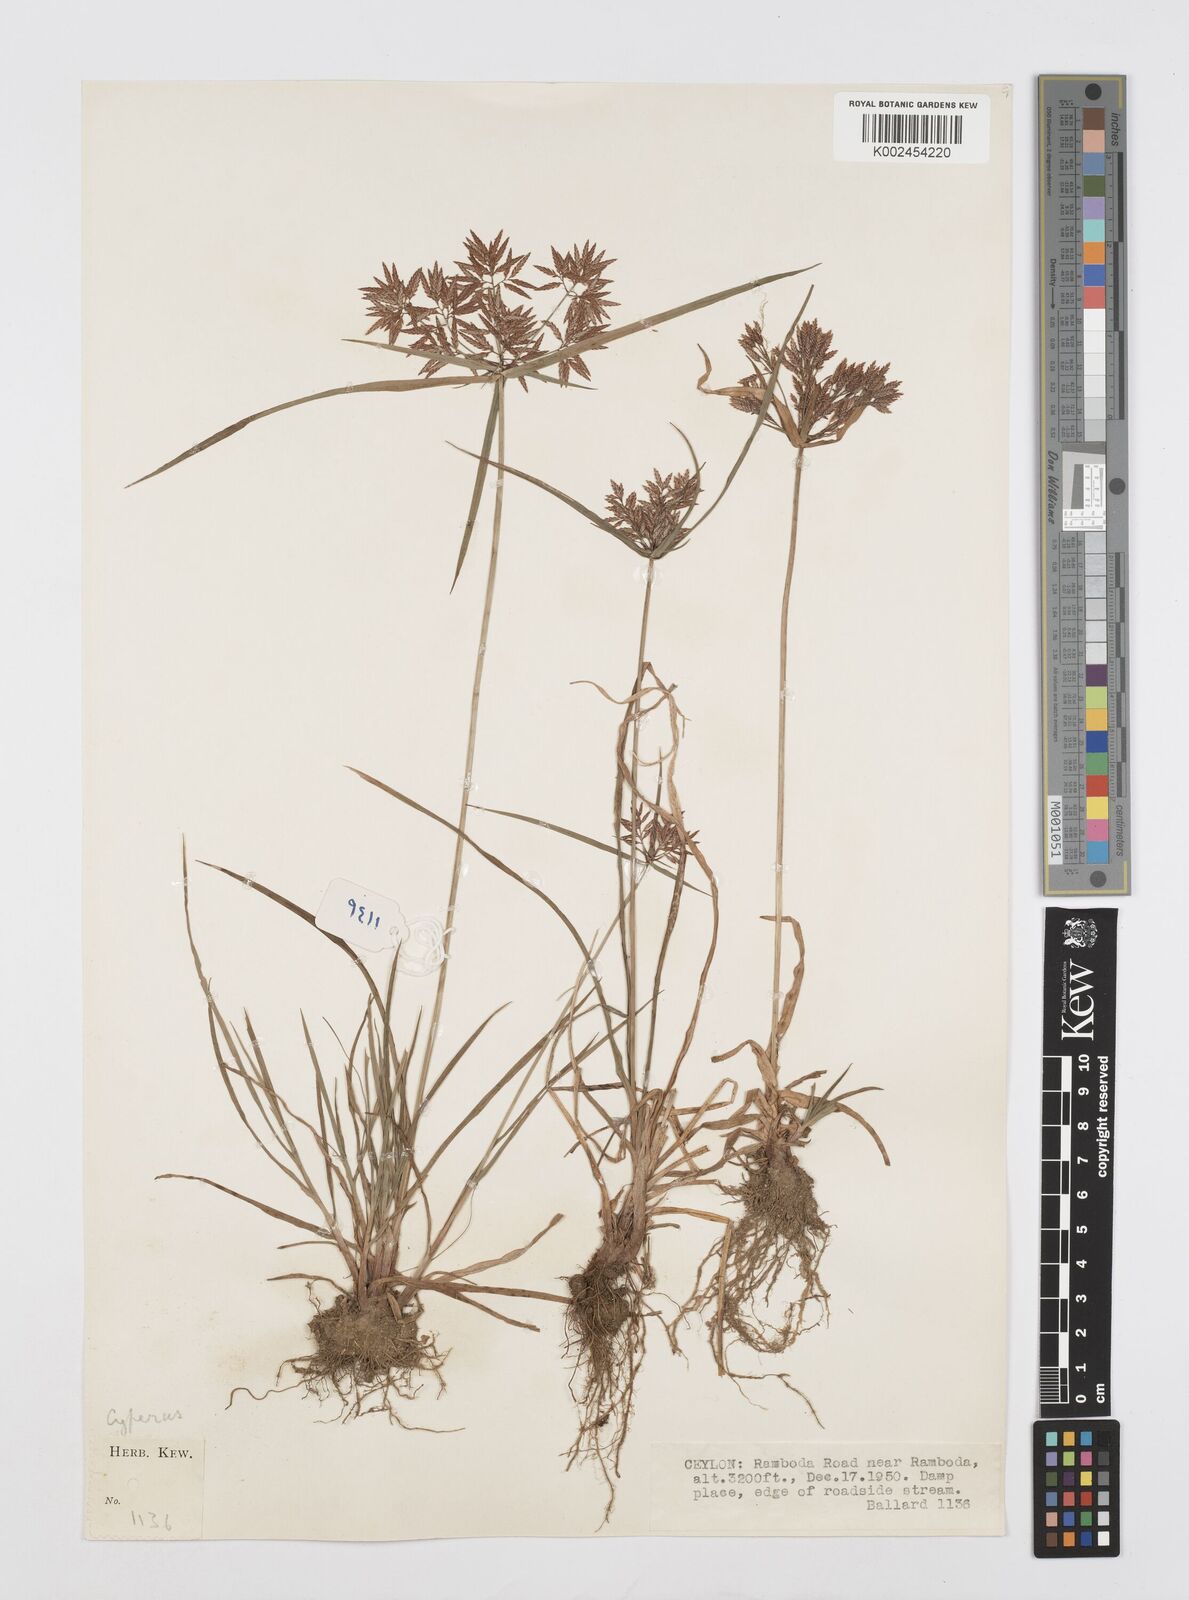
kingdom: Plantae
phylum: Tracheophyta
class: Liliopsida
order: Poales
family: Cyperaceae
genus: Cyperus
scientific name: Cyperus polystachyos
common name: Bunchy flat sedge
